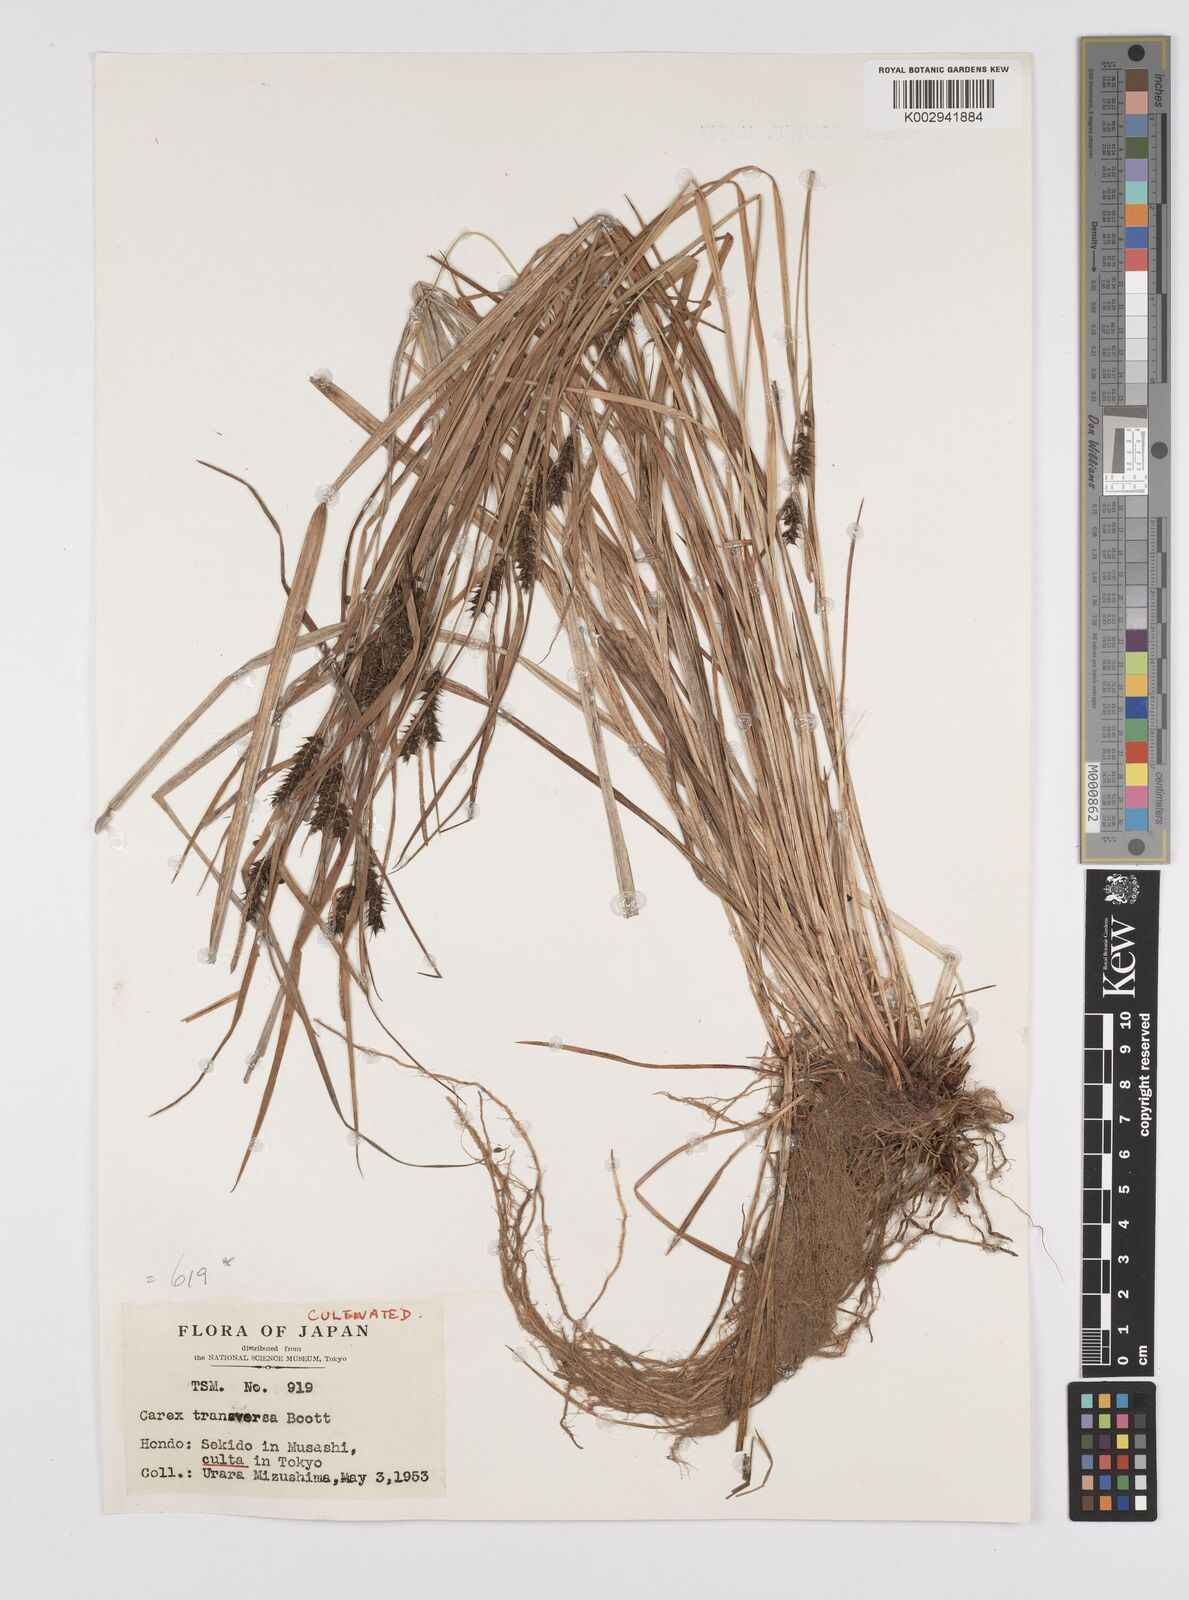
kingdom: Plantae
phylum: Tracheophyta
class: Liliopsida
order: Poales
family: Cyperaceae
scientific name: Cyperaceae
